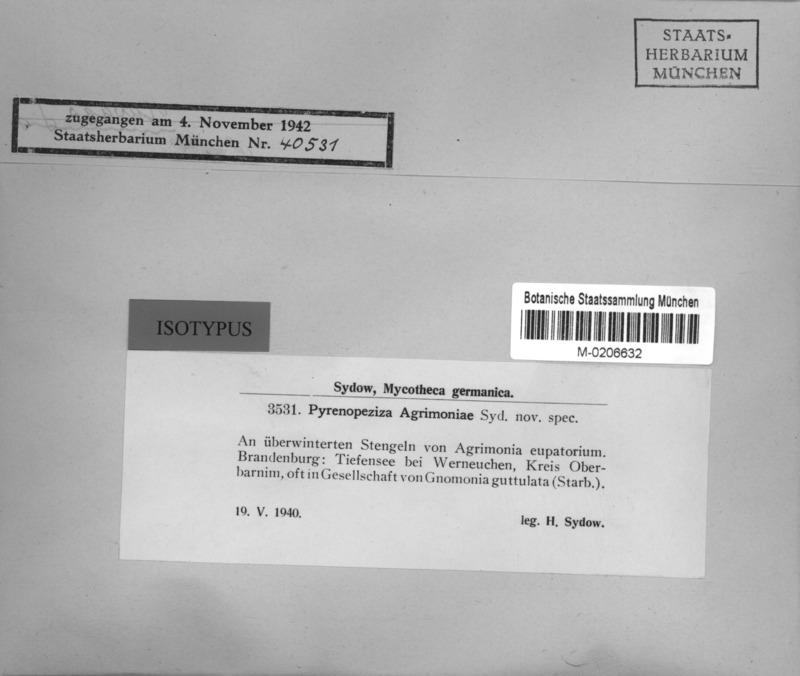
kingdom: Fungi
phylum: Ascomycota
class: Leotiomycetes
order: Helotiales
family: Ploettnerulaceae
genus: Pyrenopeziza
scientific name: Pyrenopeziza agrimoniae
